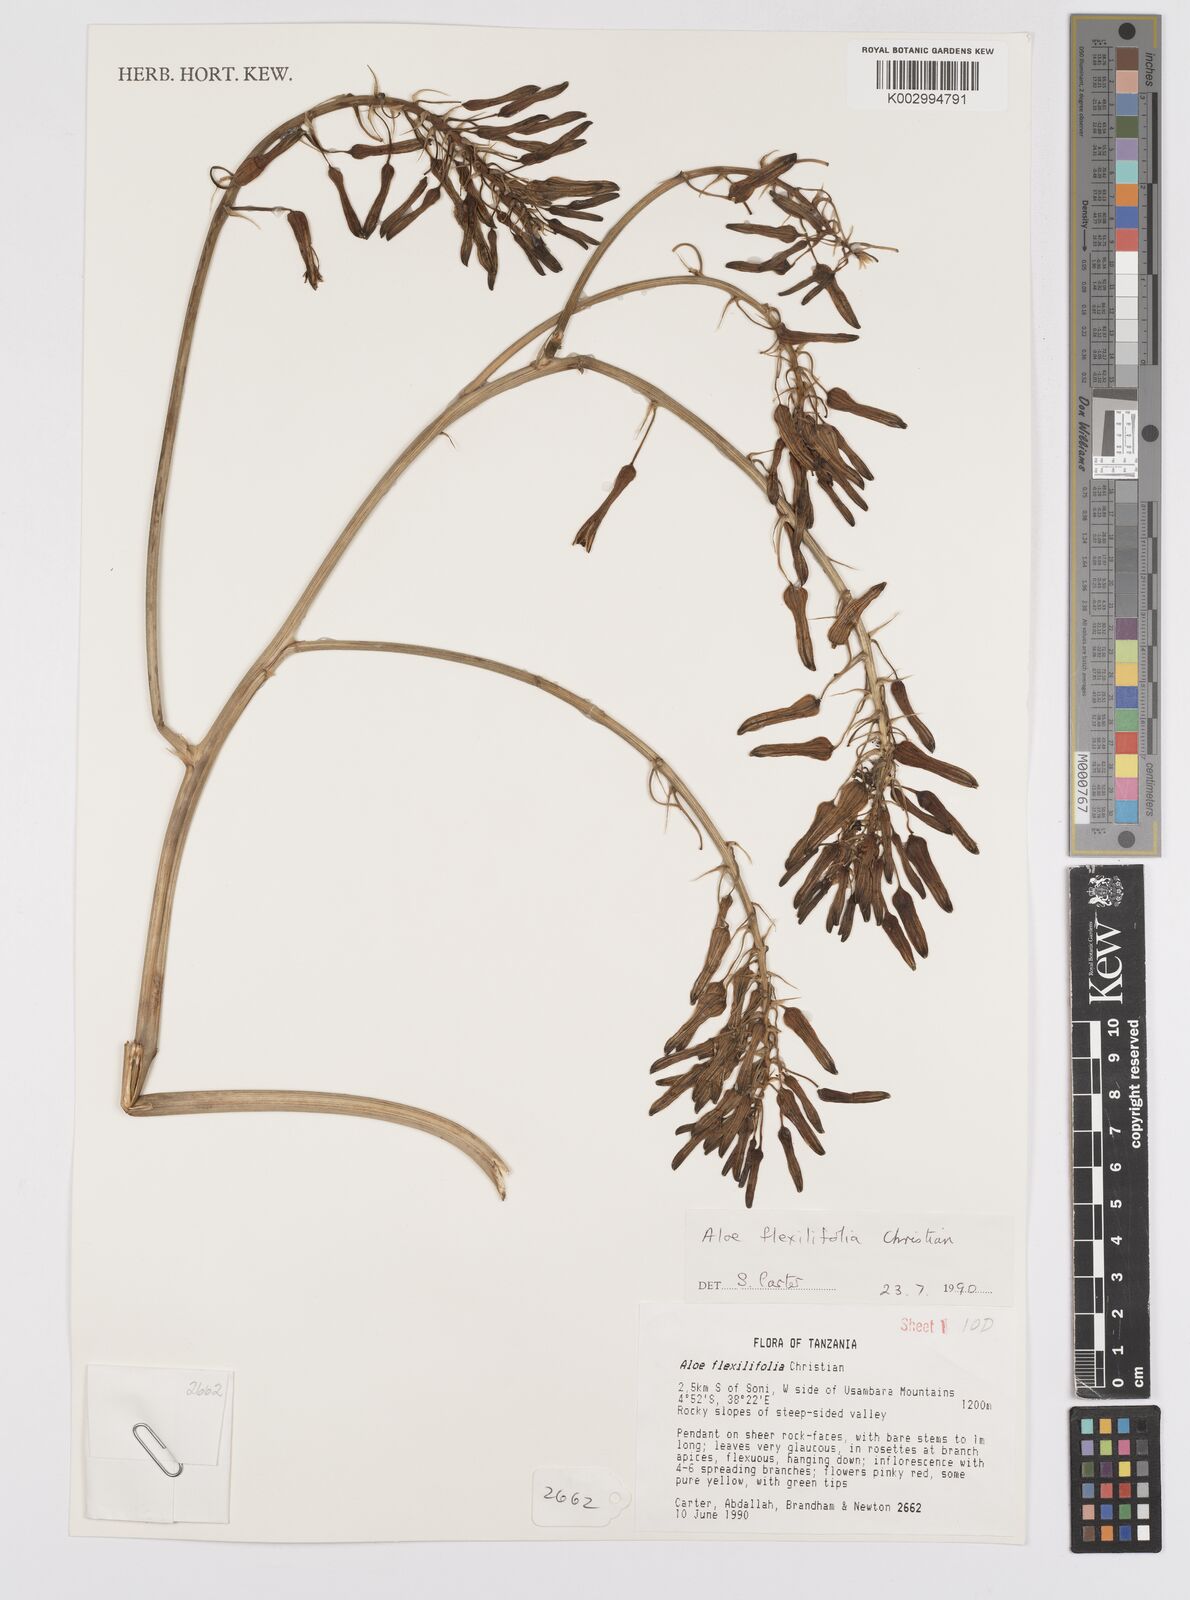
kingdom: Plantae
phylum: Tracheophyta
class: Liliopsida
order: Asparagales
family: Asphodelaceae
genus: Aloe
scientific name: Aloe flexilifolia
